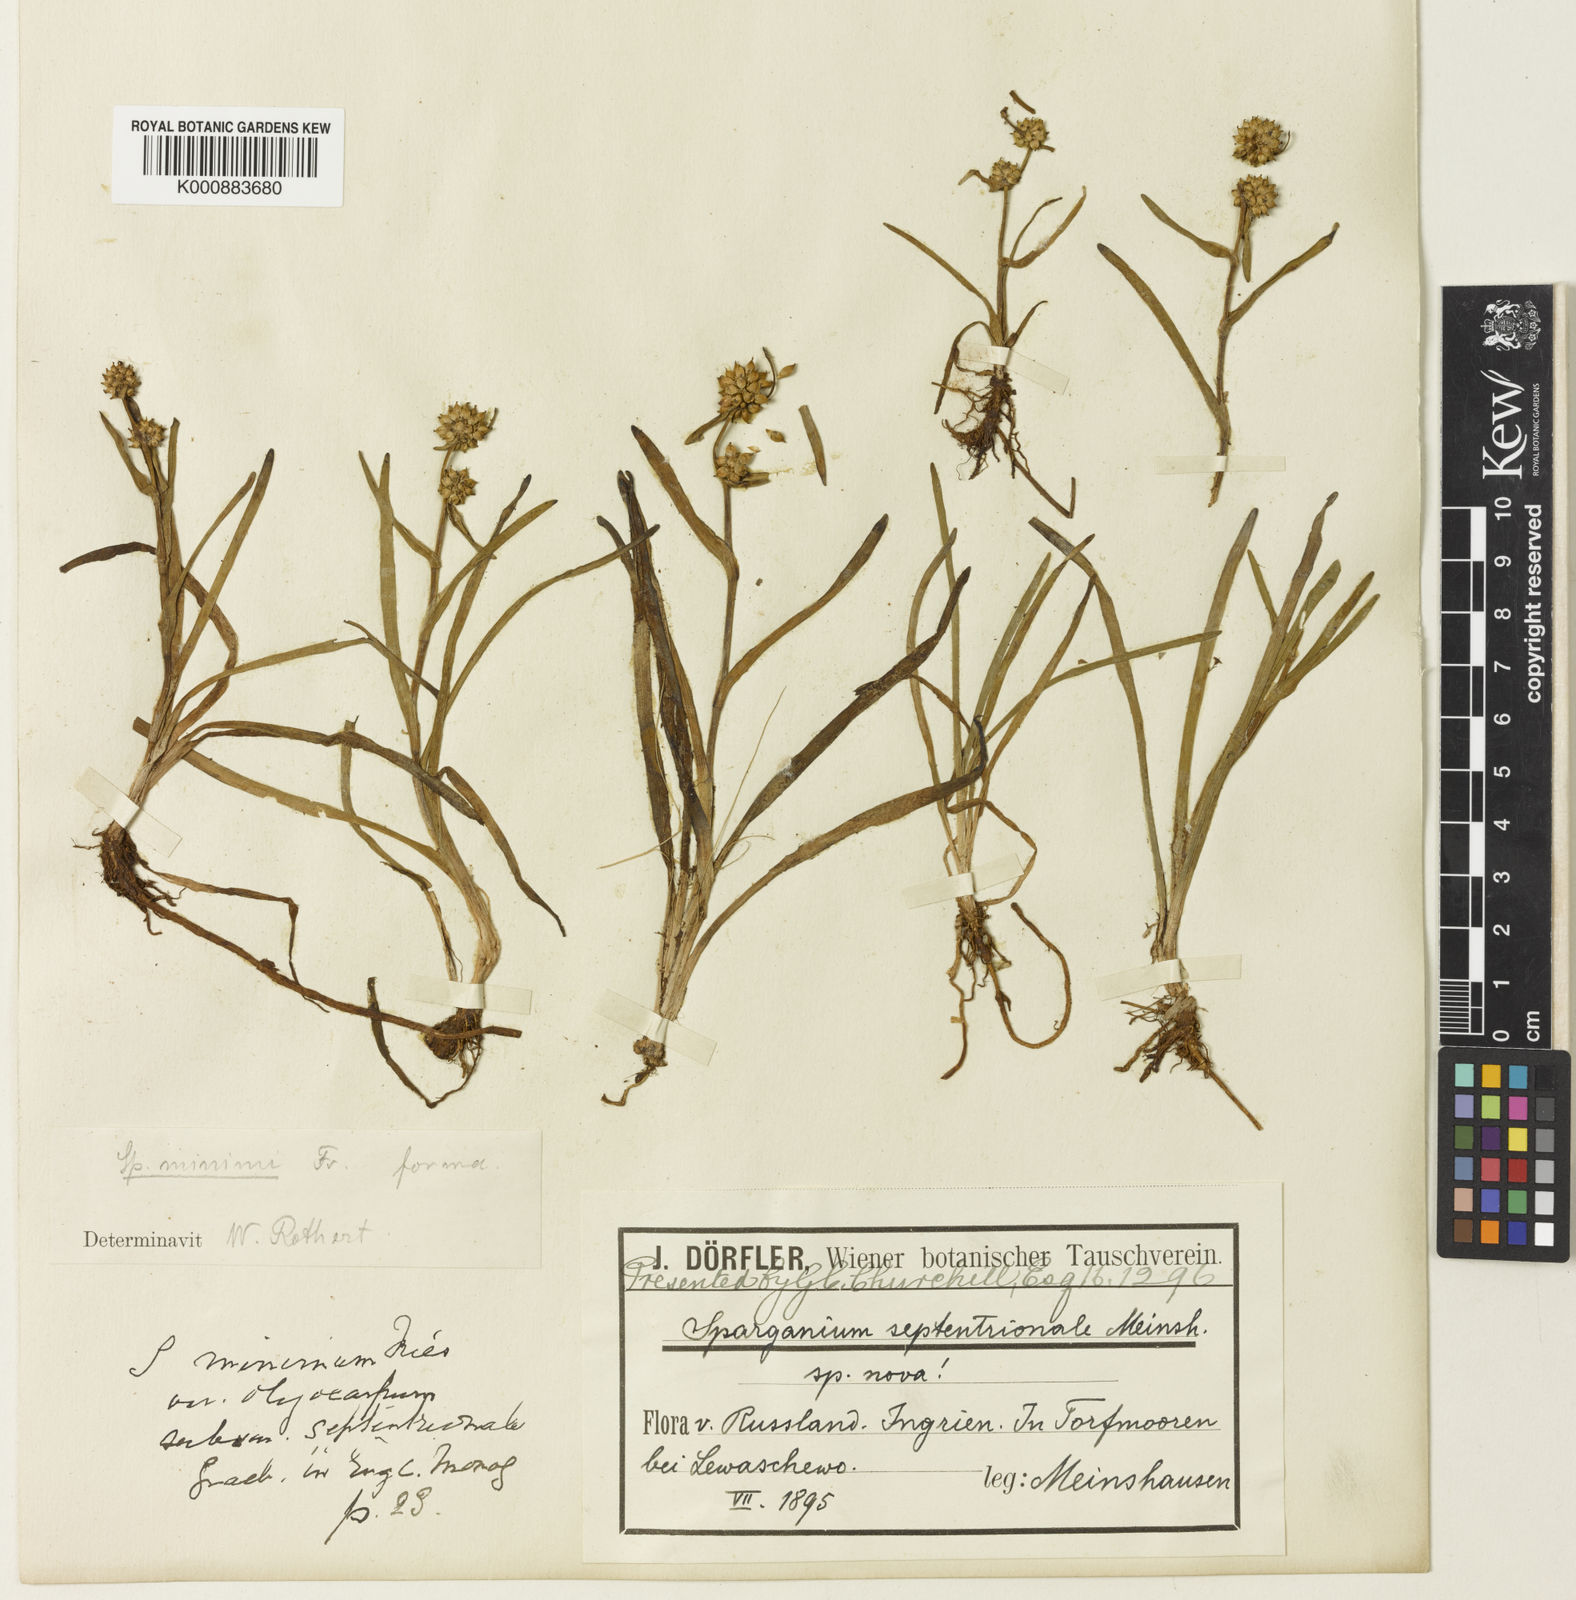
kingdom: Plantae
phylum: Tracheophyta
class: Liliopsida
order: Poales
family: Typhaceae
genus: Sparganium
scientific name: Sparganium
